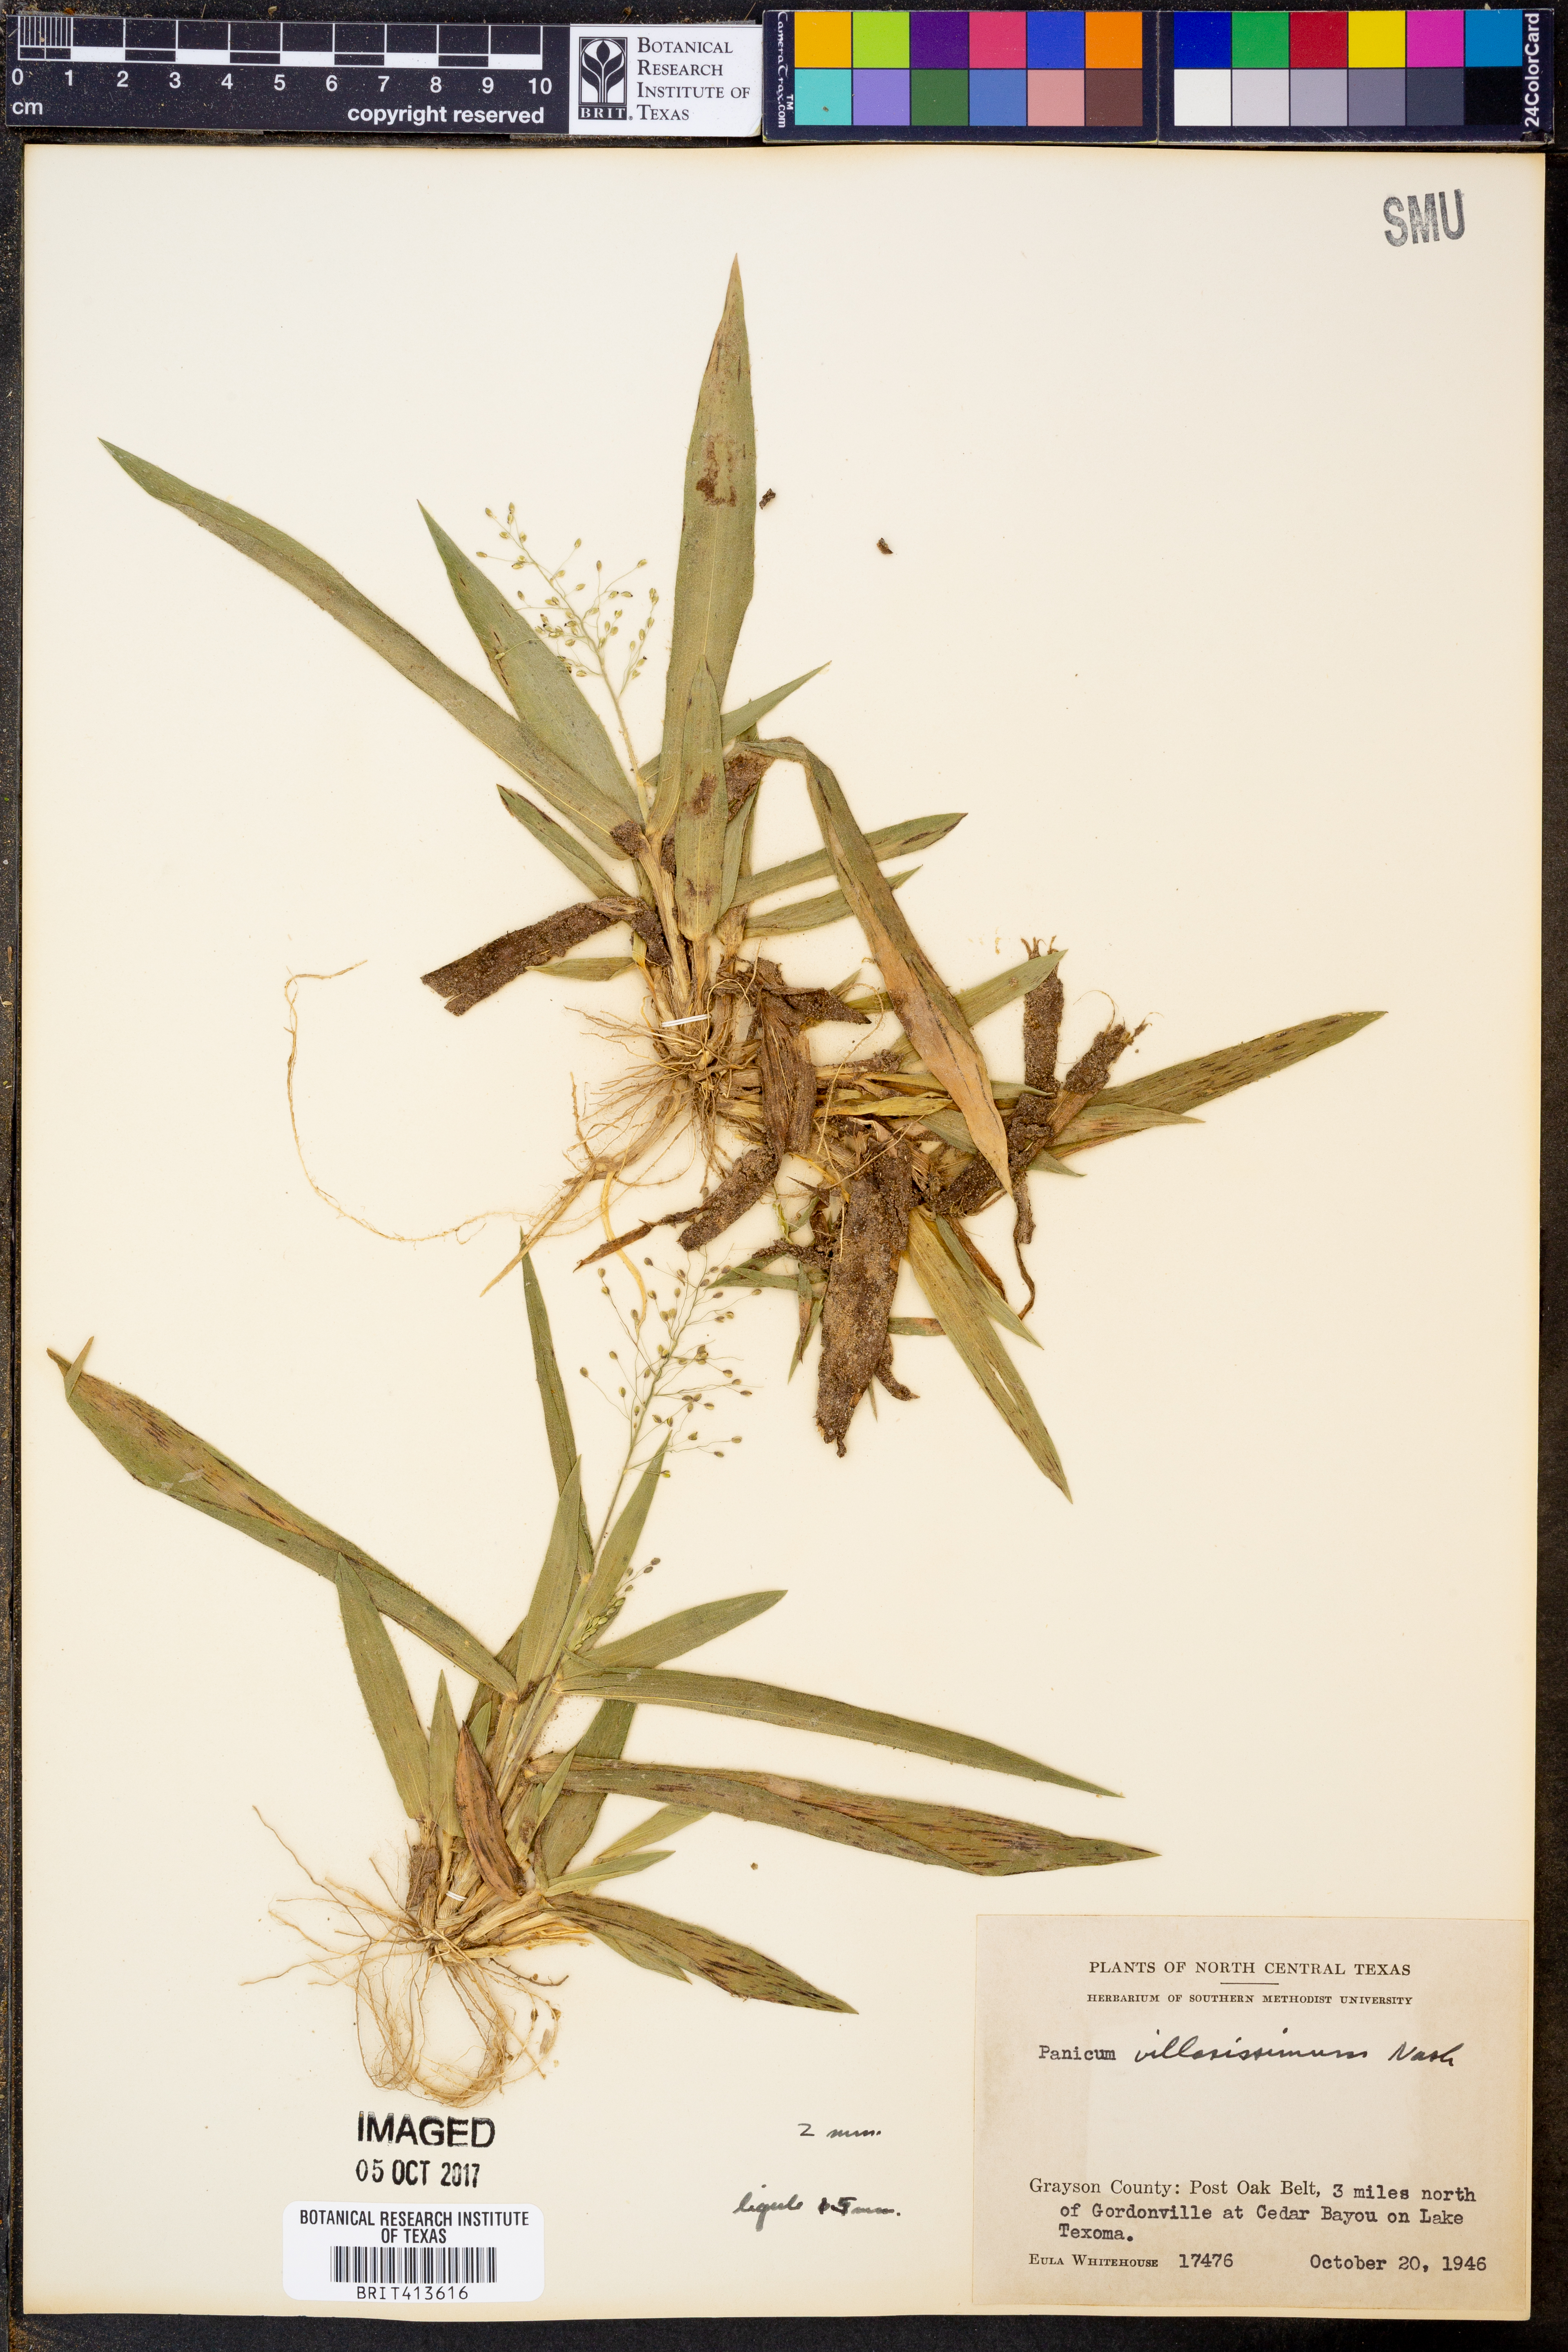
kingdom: Plantae
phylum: Tracheophyta
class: Liliopsida
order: Poales
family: Poaceae
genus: Dichanthelium
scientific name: Dichanthelium villosissimum
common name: White-haired panicgrass
